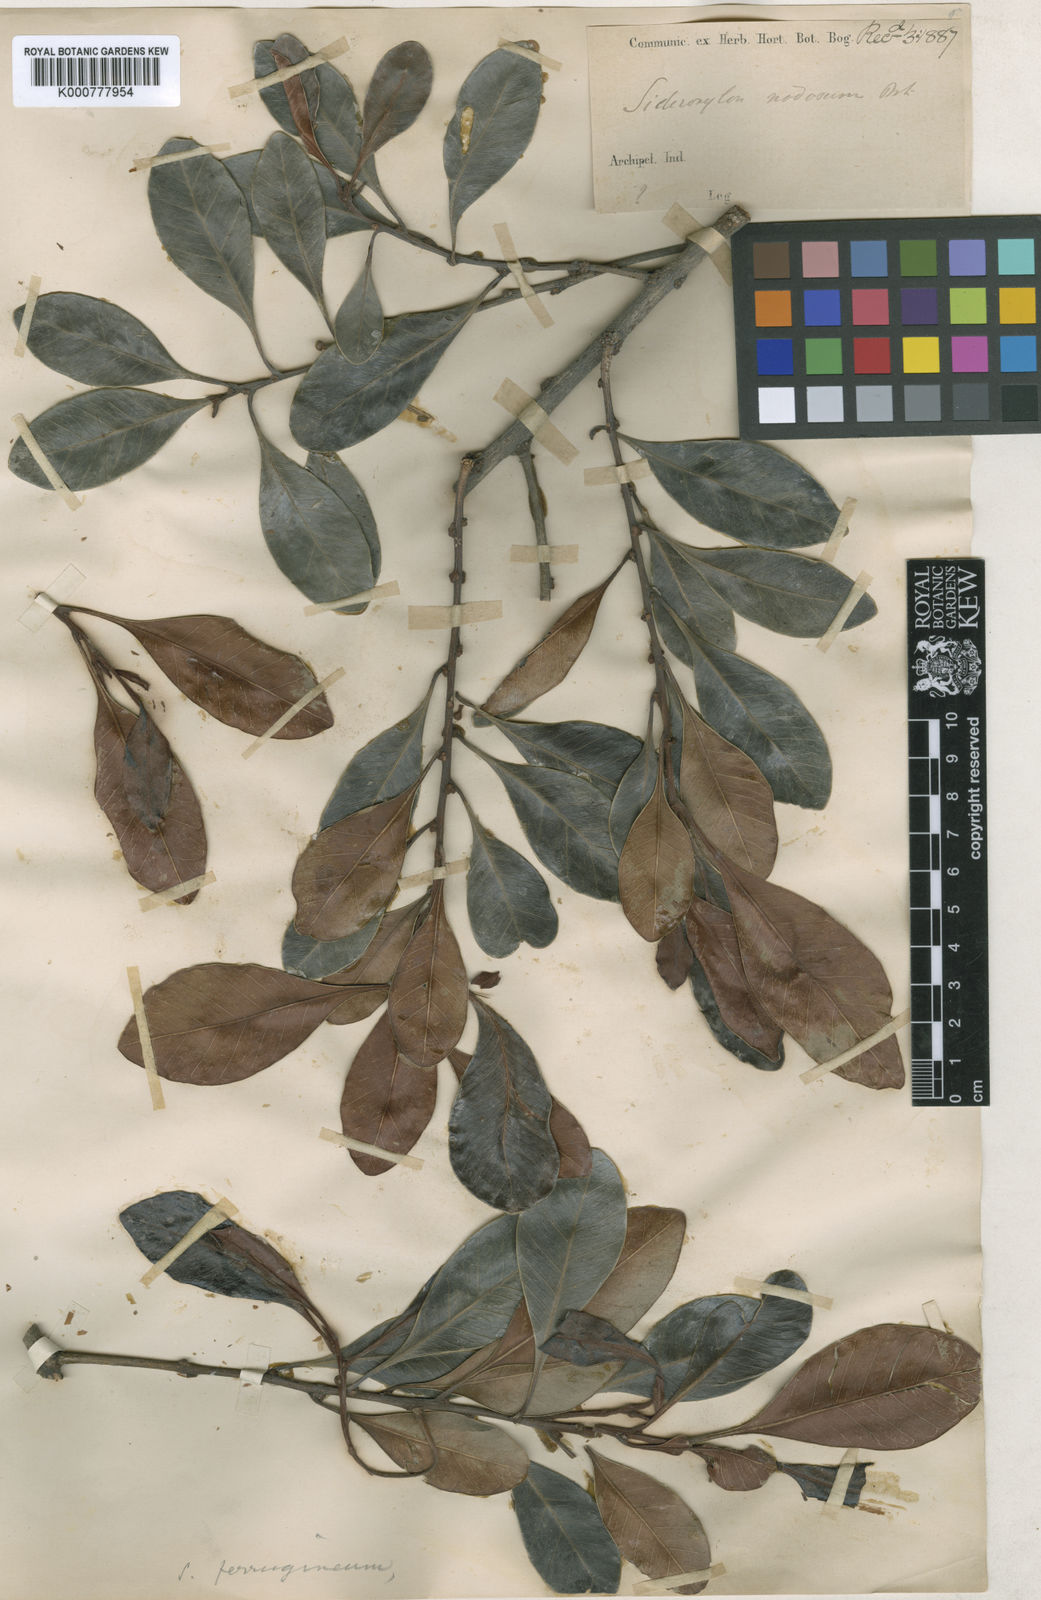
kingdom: Plantae
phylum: Tracheophyta
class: Magnoliopsida
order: Ericales
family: Sapotaceae
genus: Planchonella
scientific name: Planchonella obovata
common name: Black-ash
